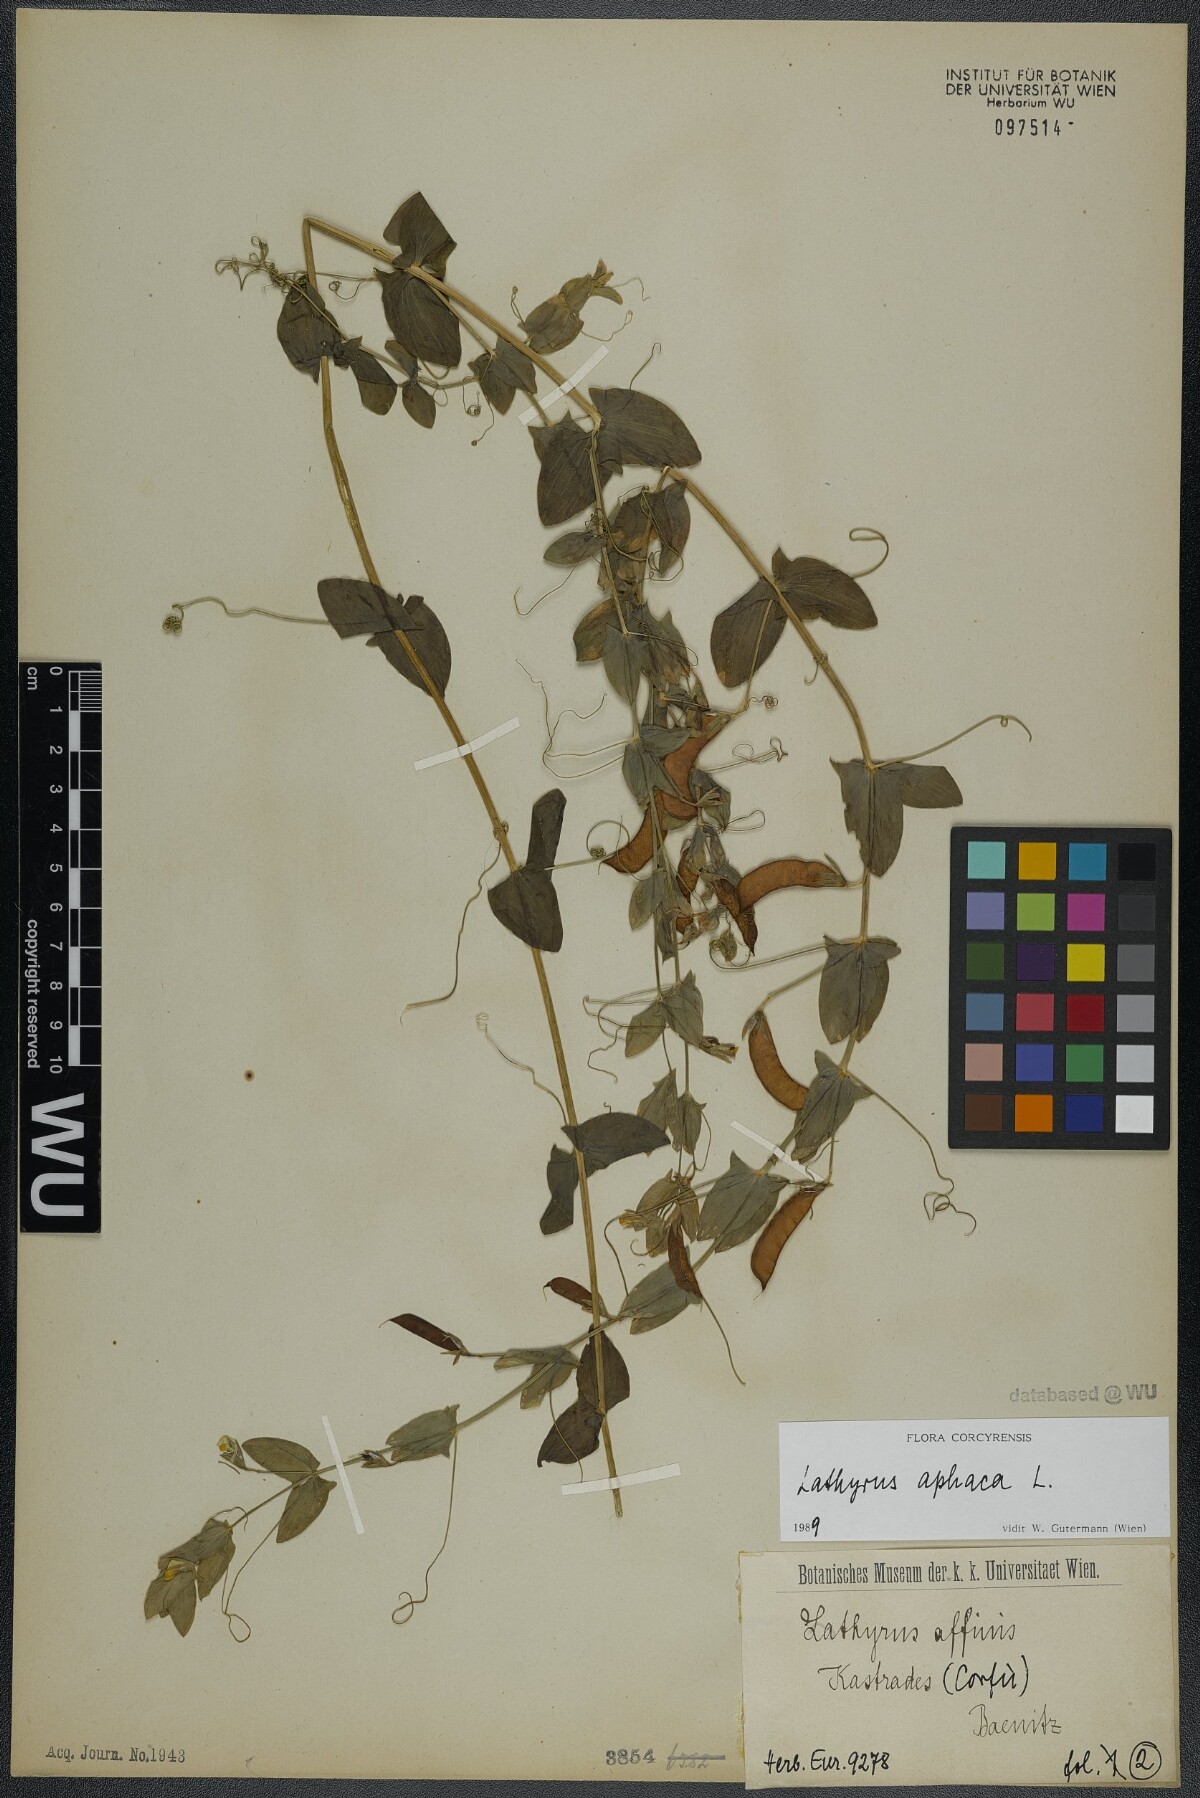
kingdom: Plantae
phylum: Tracheophyta
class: Magnoliopsida
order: Fabales
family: Fabaceae
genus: Lathyrus
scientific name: Lathyrus aphaca
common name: Yellow vetchling
